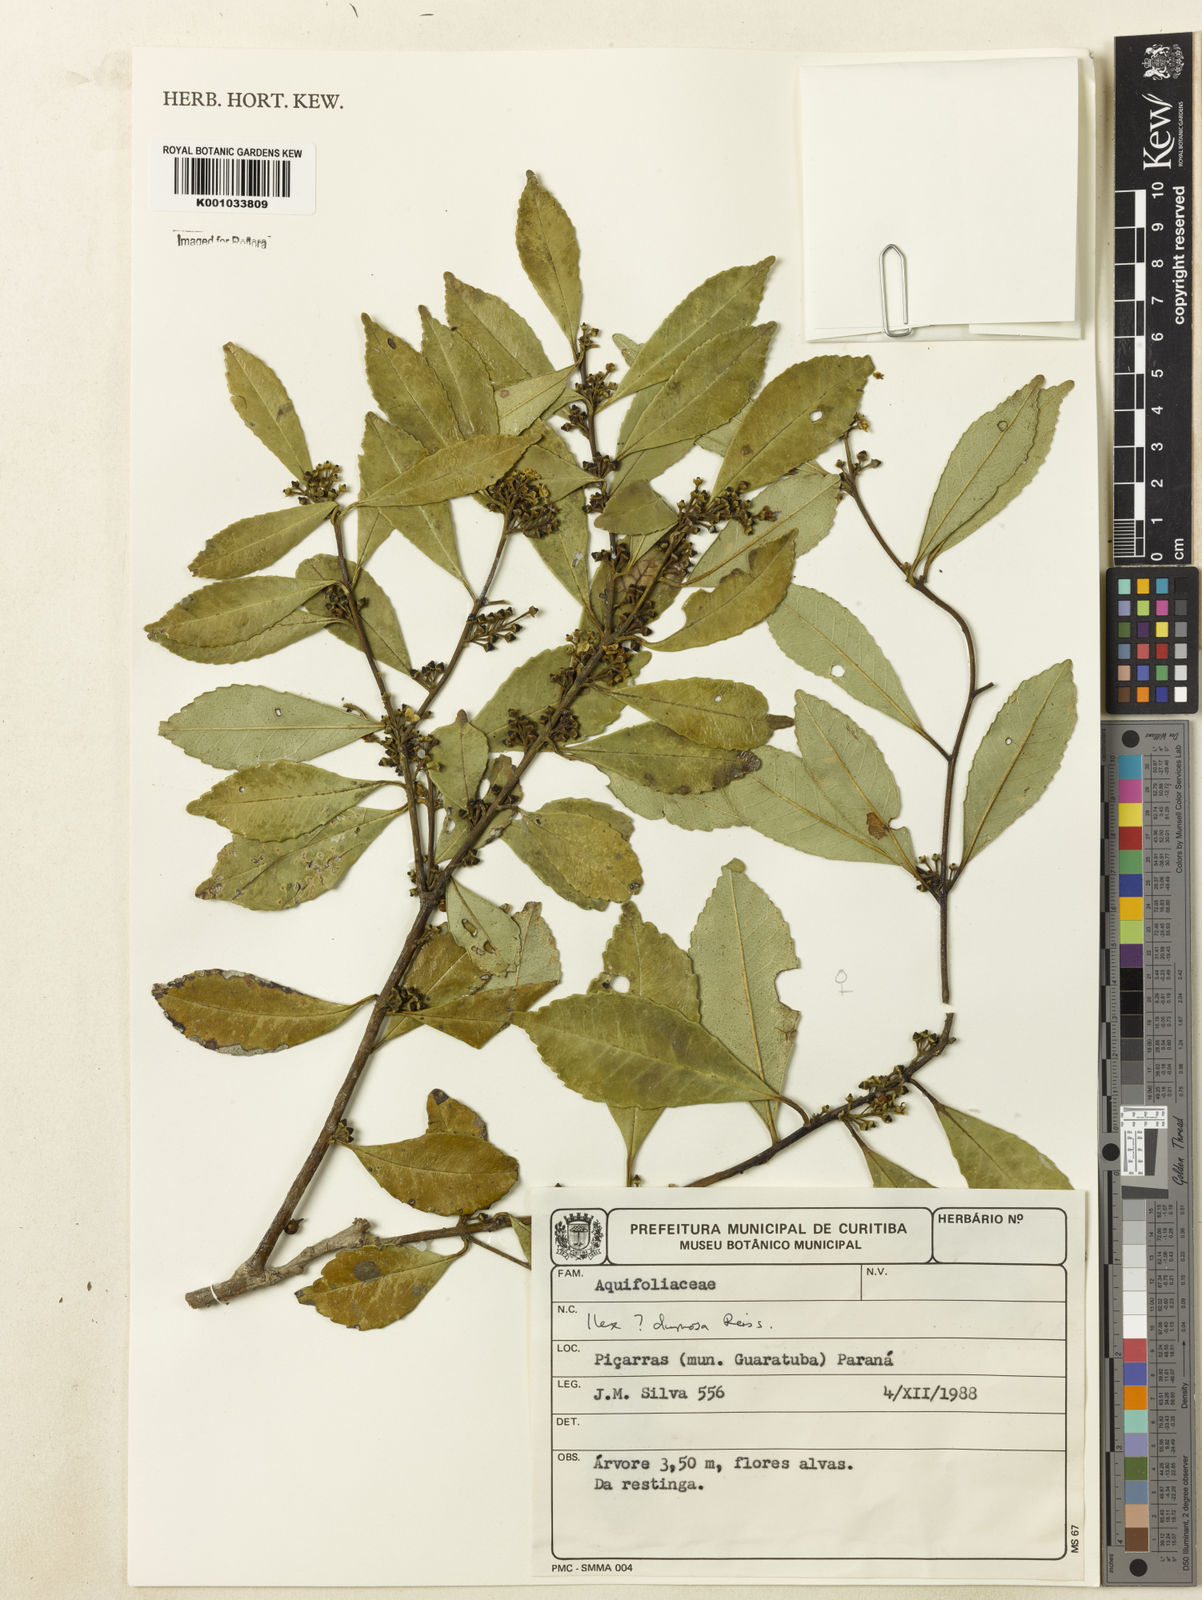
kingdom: Plantae
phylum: Tracheophyta
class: Magnoliopsida
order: Aquifoliales
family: Aquifoliaceae
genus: Ilex
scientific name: Ilex dumosa
